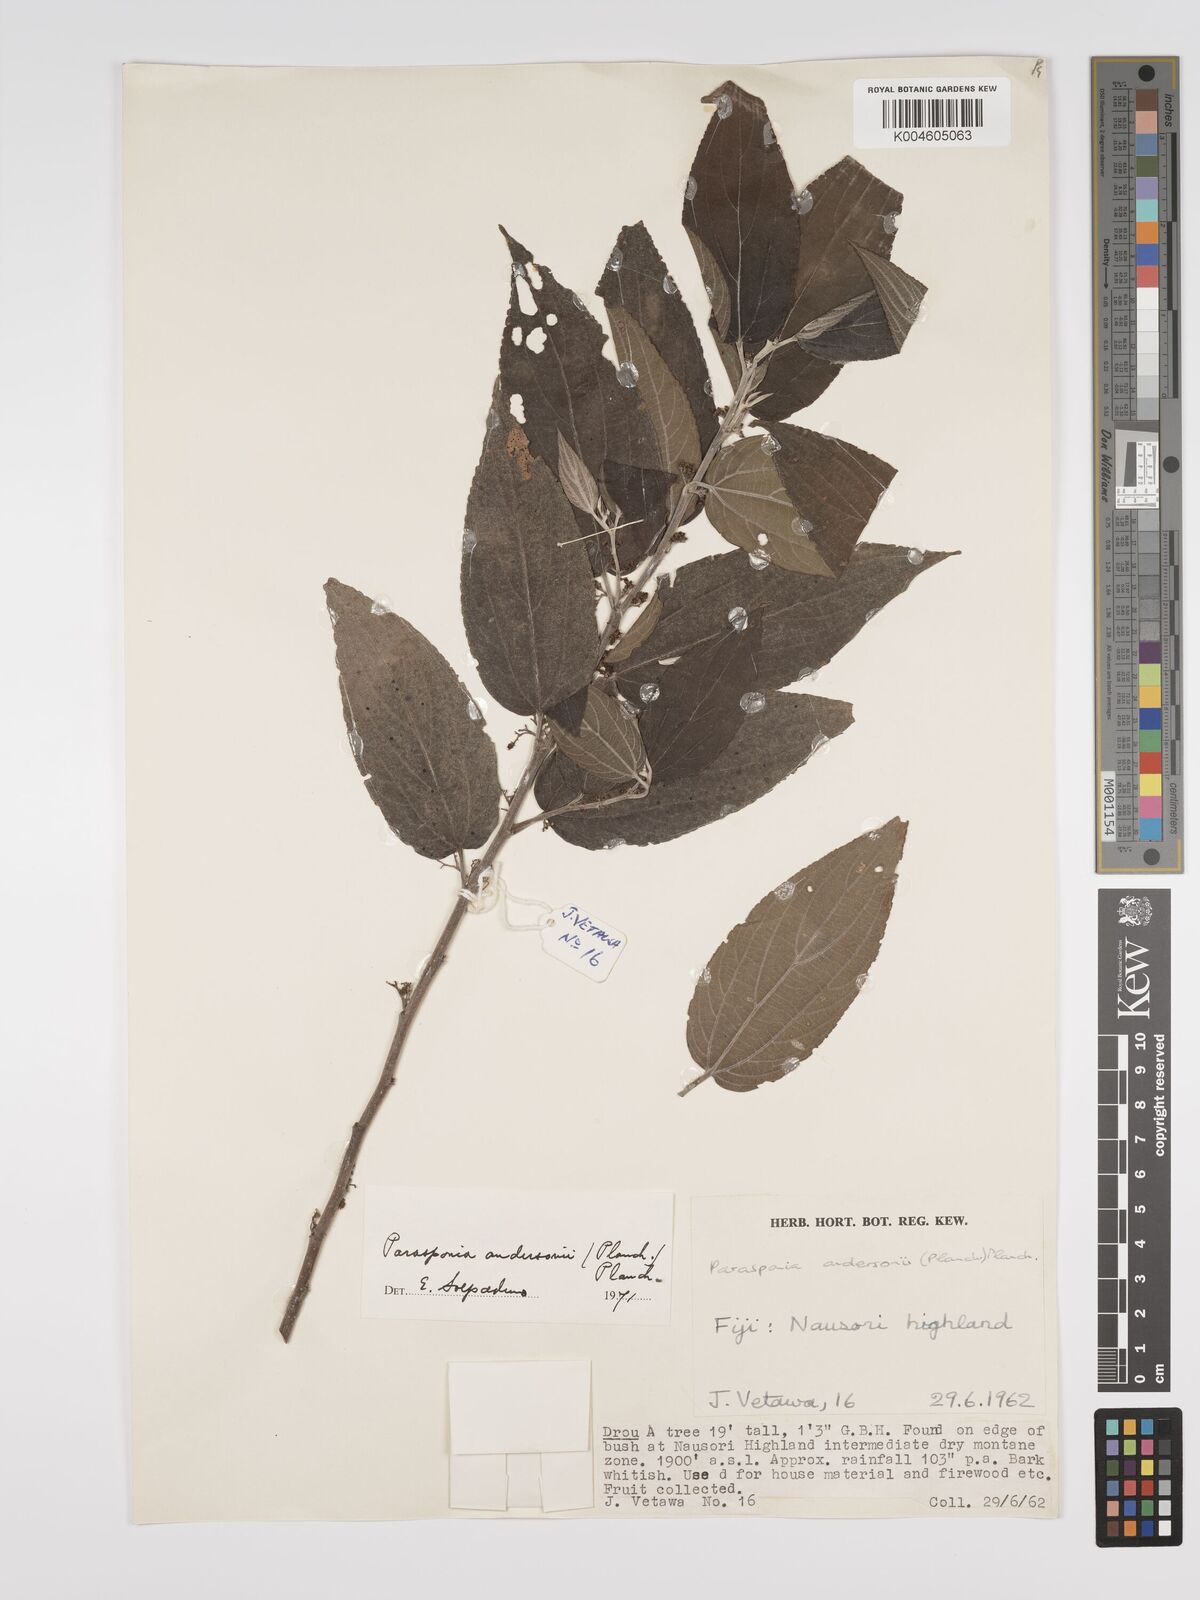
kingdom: Plantae
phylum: Tracheophyta
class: Magnoliopsida
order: Rosales
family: Cannabaceae
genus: Trema
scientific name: Trema andersonii
